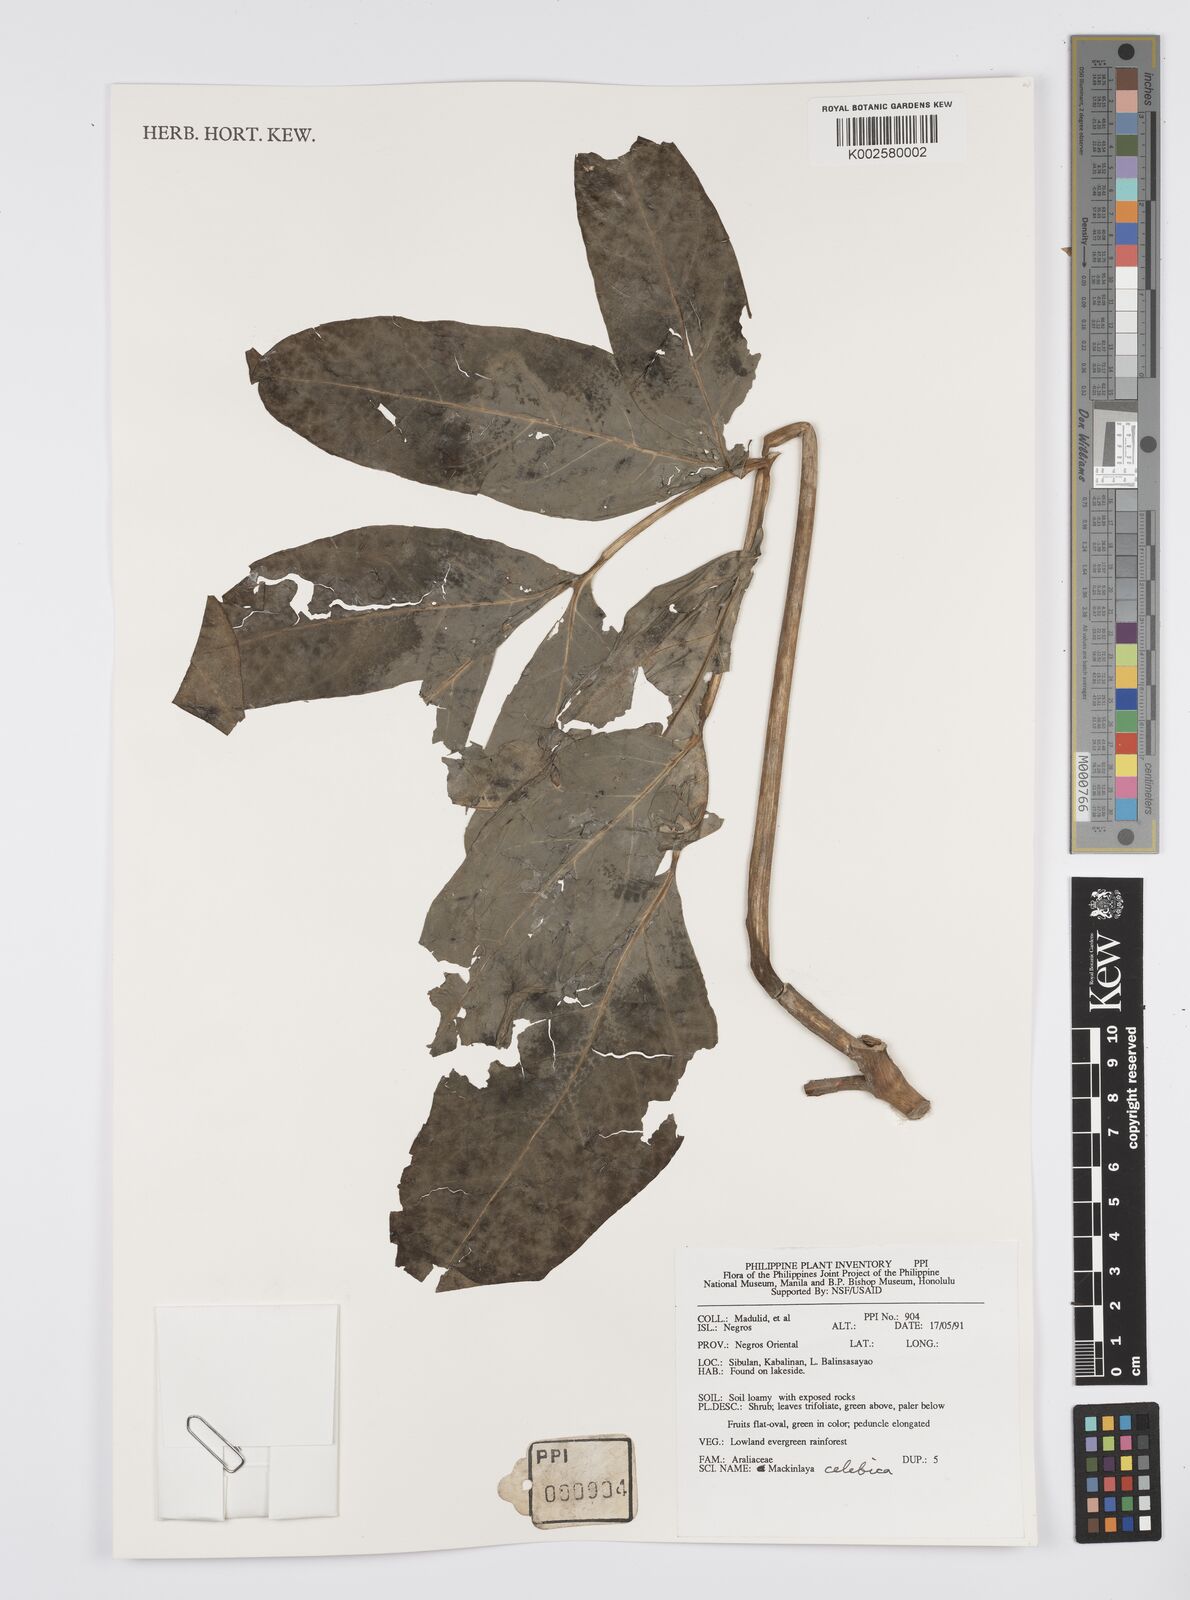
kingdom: Plantae
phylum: Tracheophyta
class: Magnoliopsida
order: Apiales
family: Apiaceae
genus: Mackinlaya
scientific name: Mackinlaya celebica
